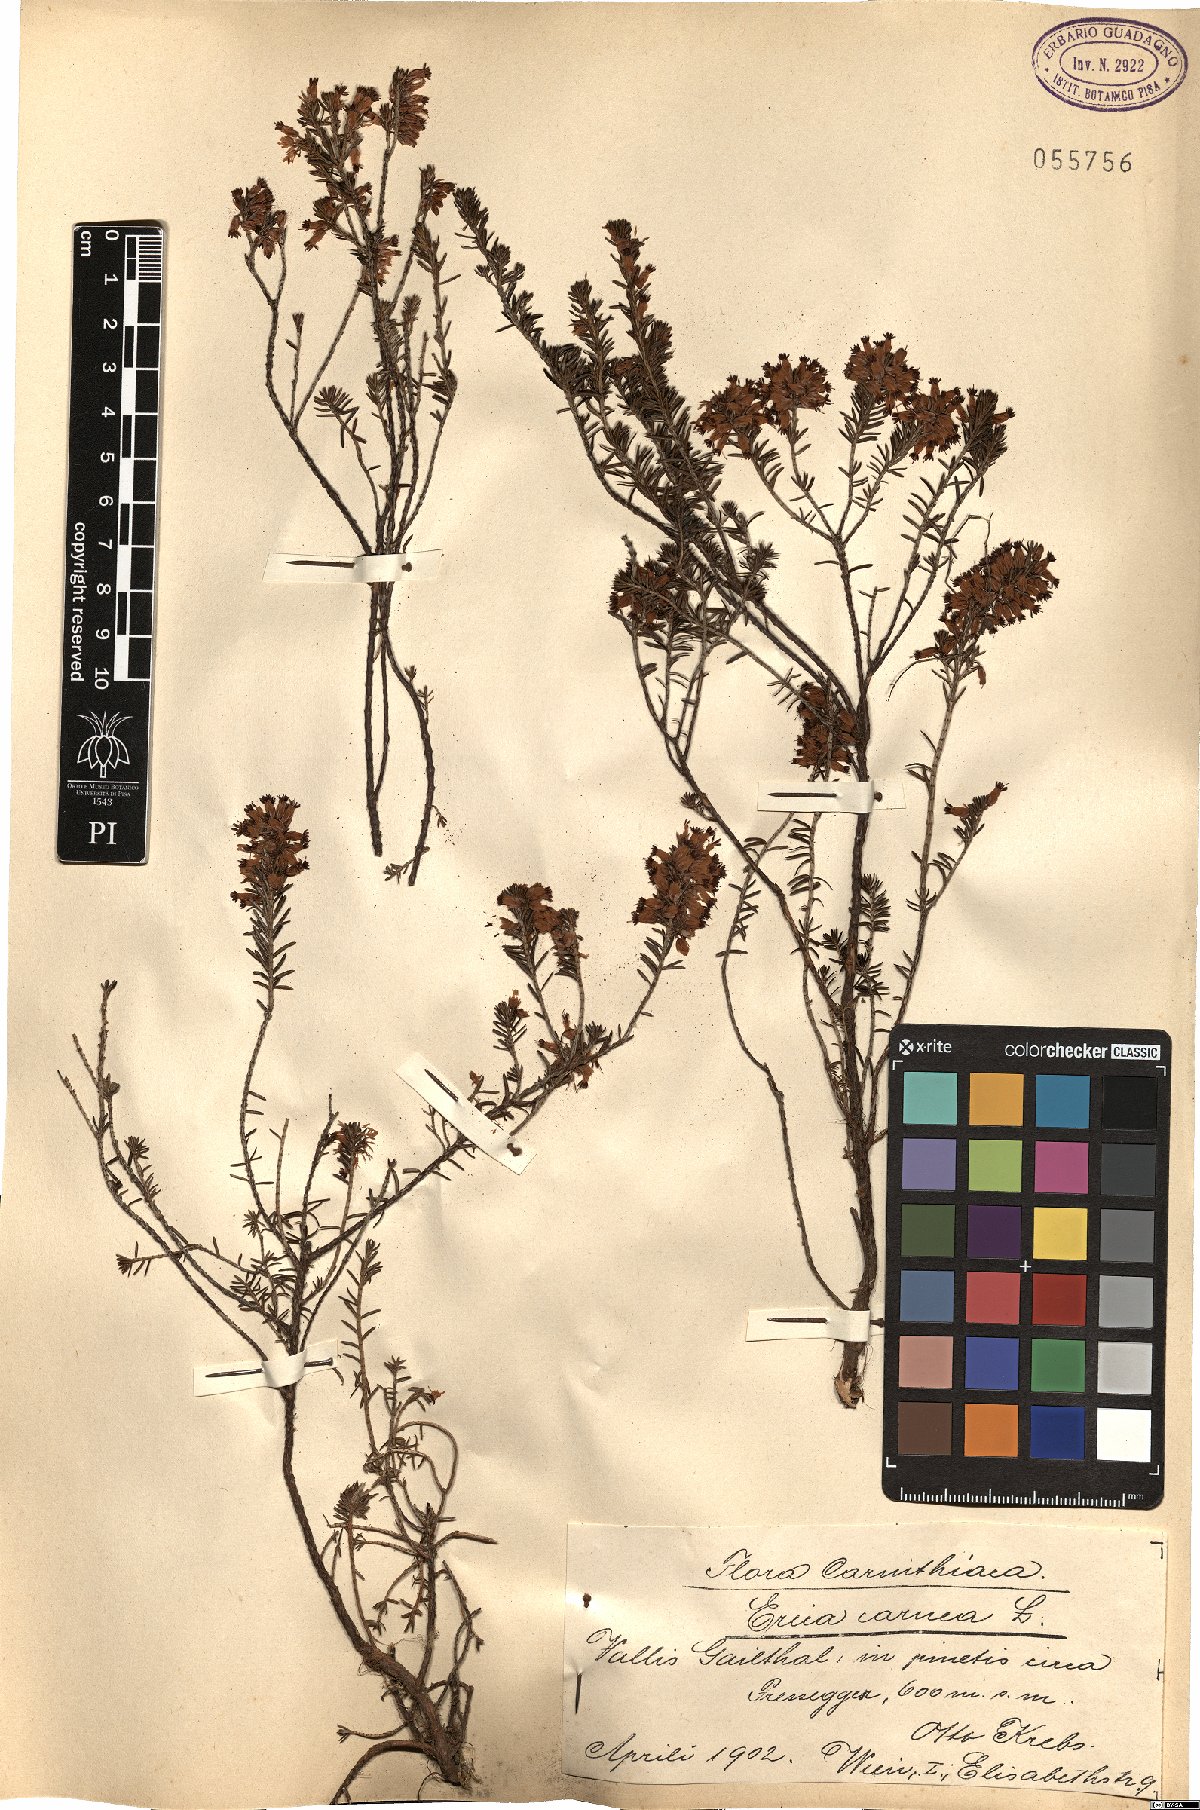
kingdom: Plantae
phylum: Tracheophyta
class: Magnoliopsida
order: Ericales
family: Ericaceae
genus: Erica
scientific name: Erica carnea
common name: Winter heath
